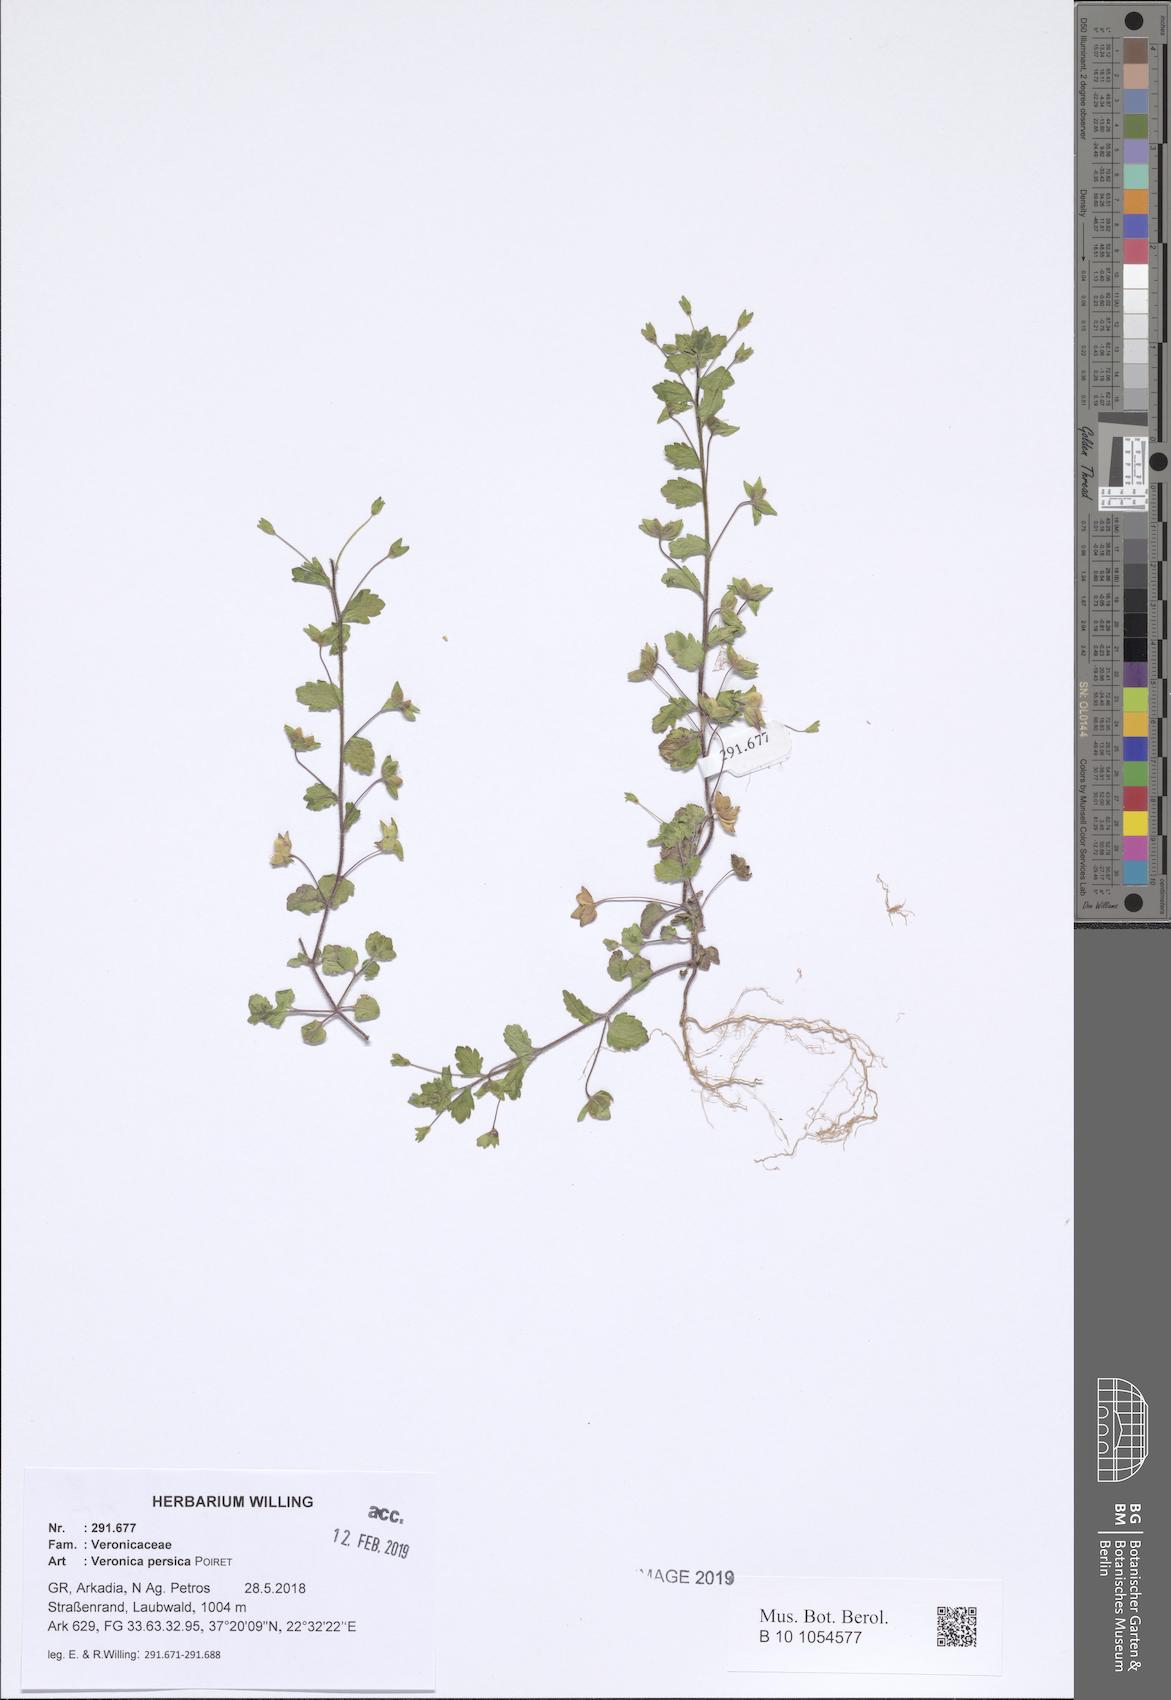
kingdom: Plantae
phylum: Tracheophyta
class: Magnoliopsida
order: Lamiales
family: Plantaginaceae
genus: Veronica
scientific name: Veronica persica
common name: Common field-speedwell
